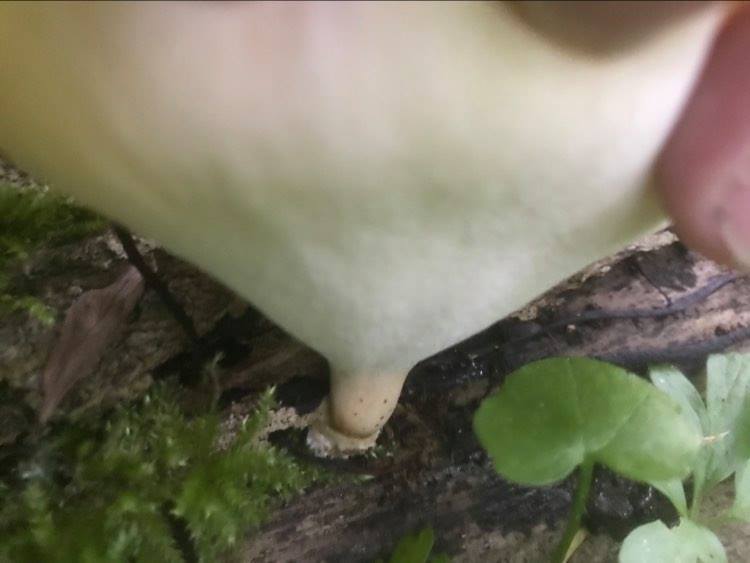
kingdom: Fungi
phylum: Basidiomycota
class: Agaricomycetes
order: Polyporales
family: Polyporaceae
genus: Cerioporus
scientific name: Cerioporus varius
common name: foranderlig stilkporesvamp
